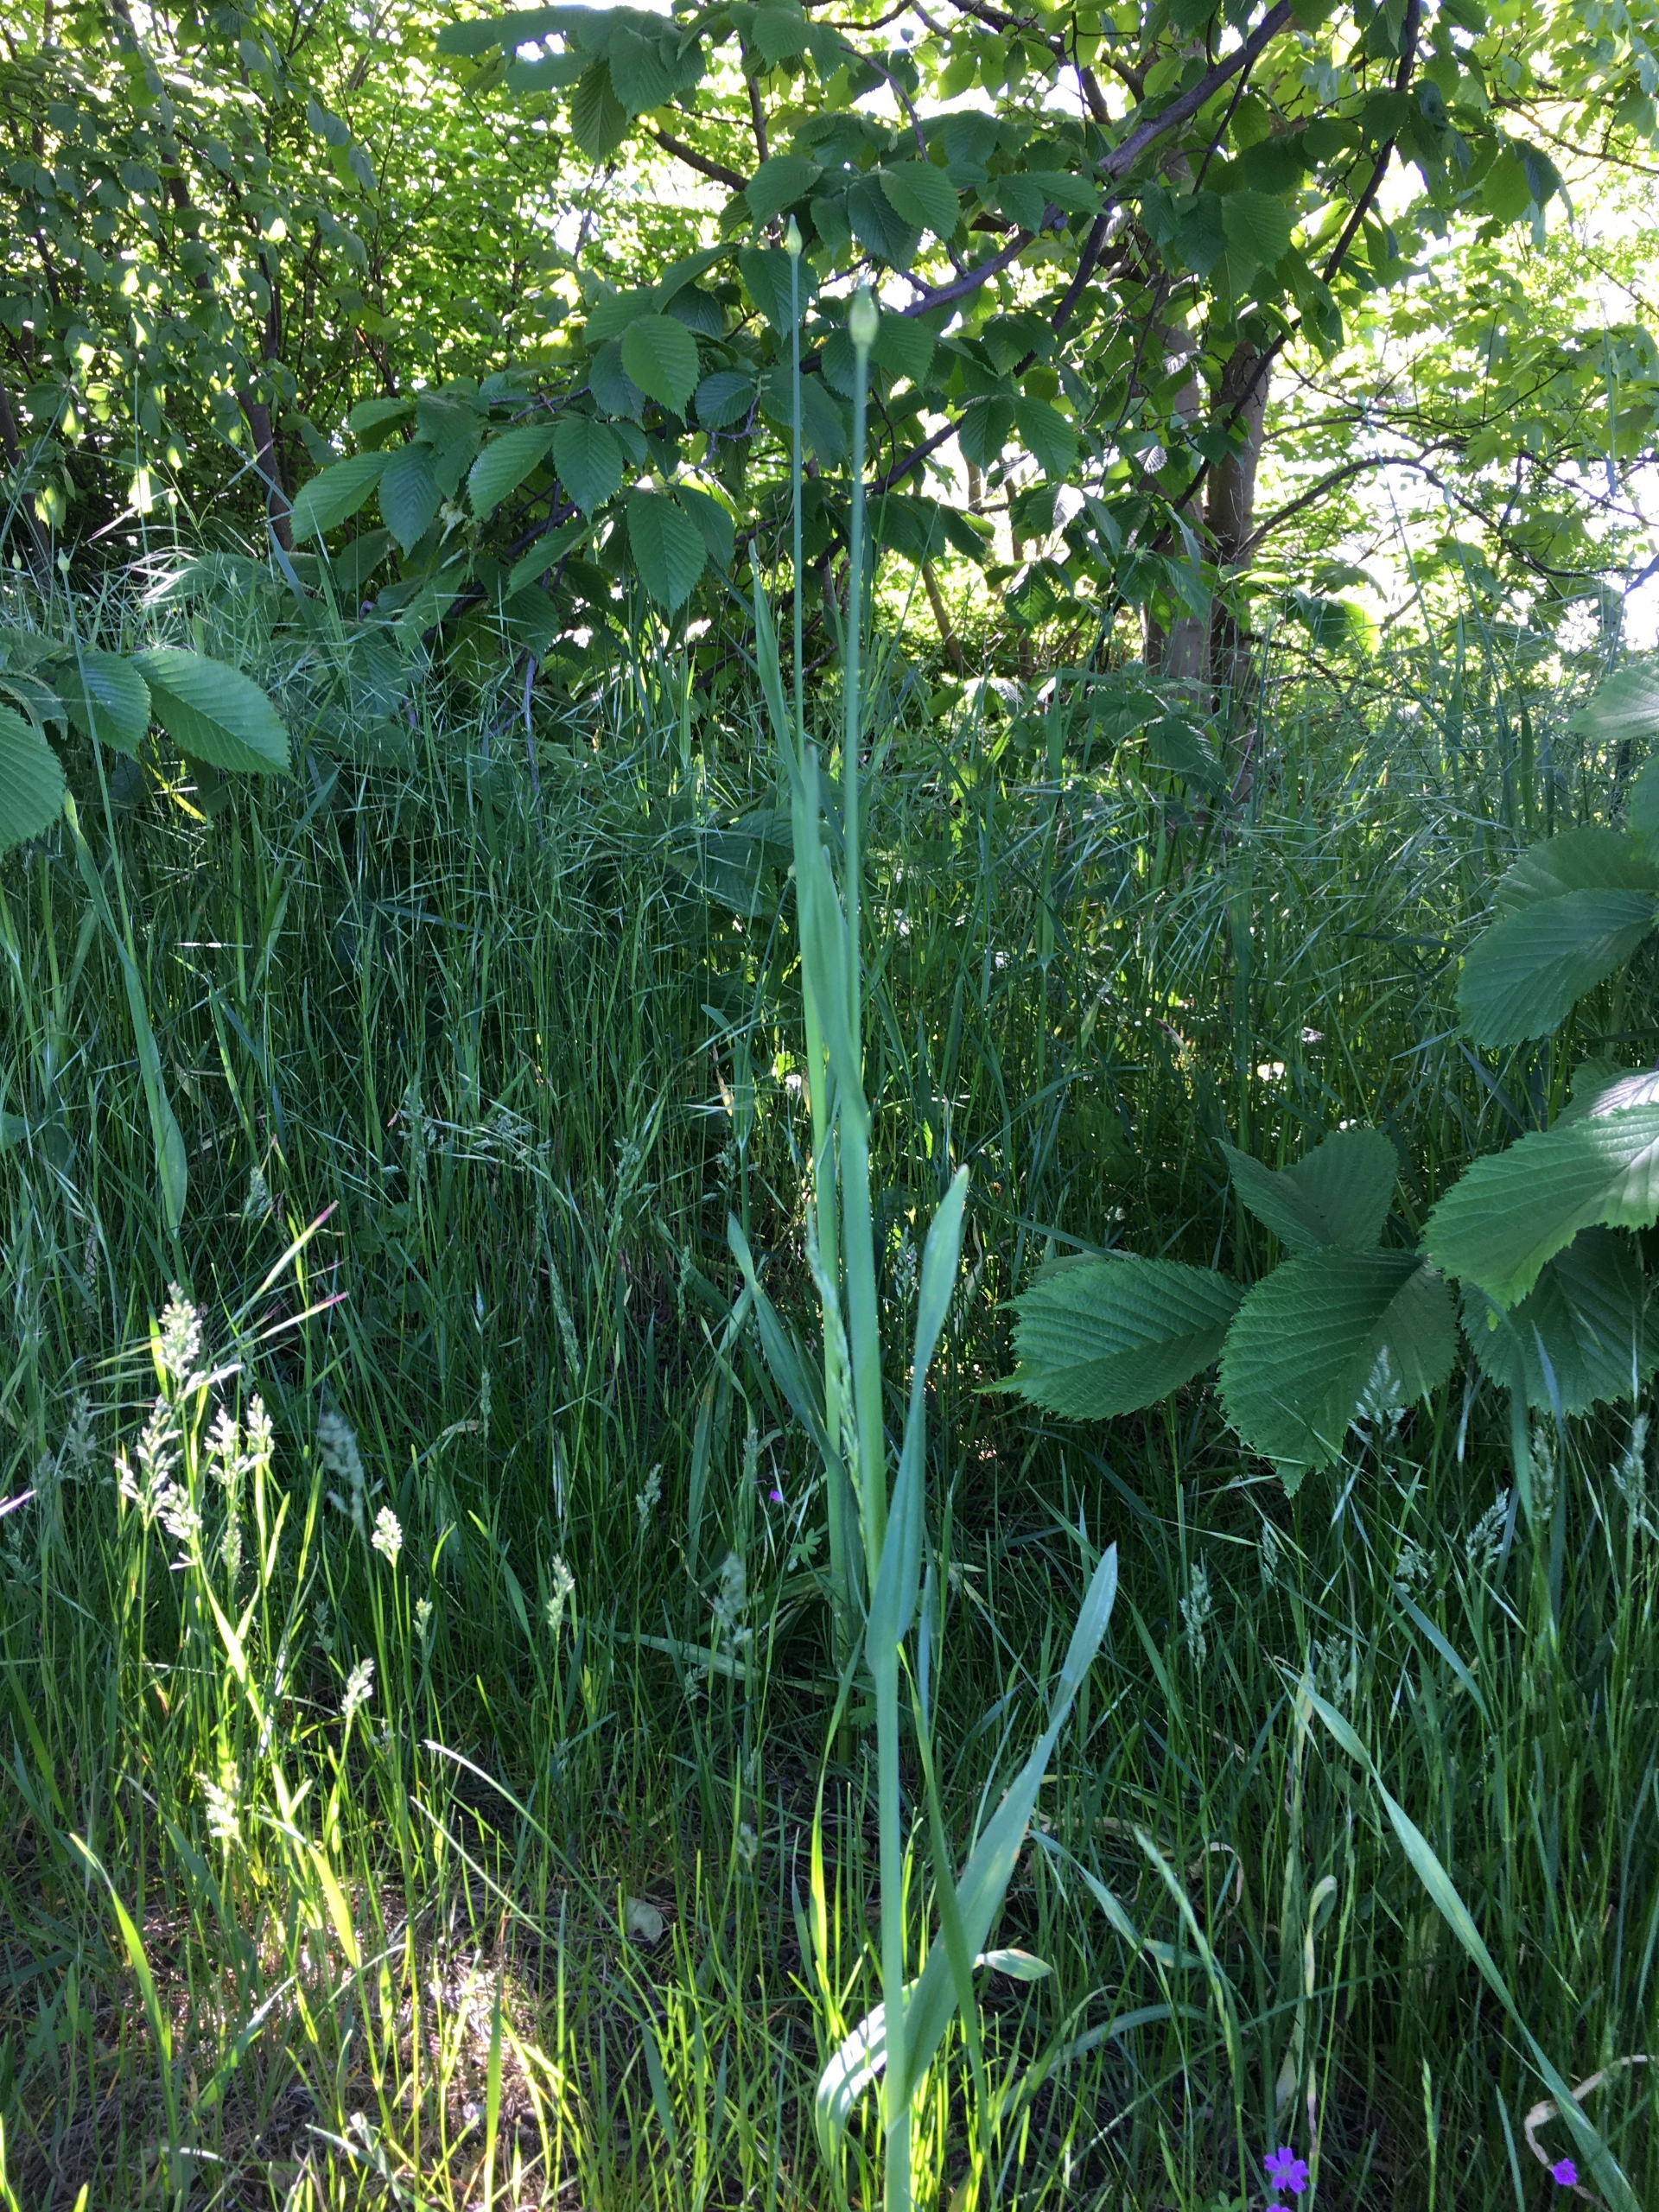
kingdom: Plantae
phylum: Tracheophyta
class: Liliopsida
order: Asparagales
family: Amaryllidaceae
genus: Allium
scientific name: Allium scorodoprasum
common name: Skov-løg
